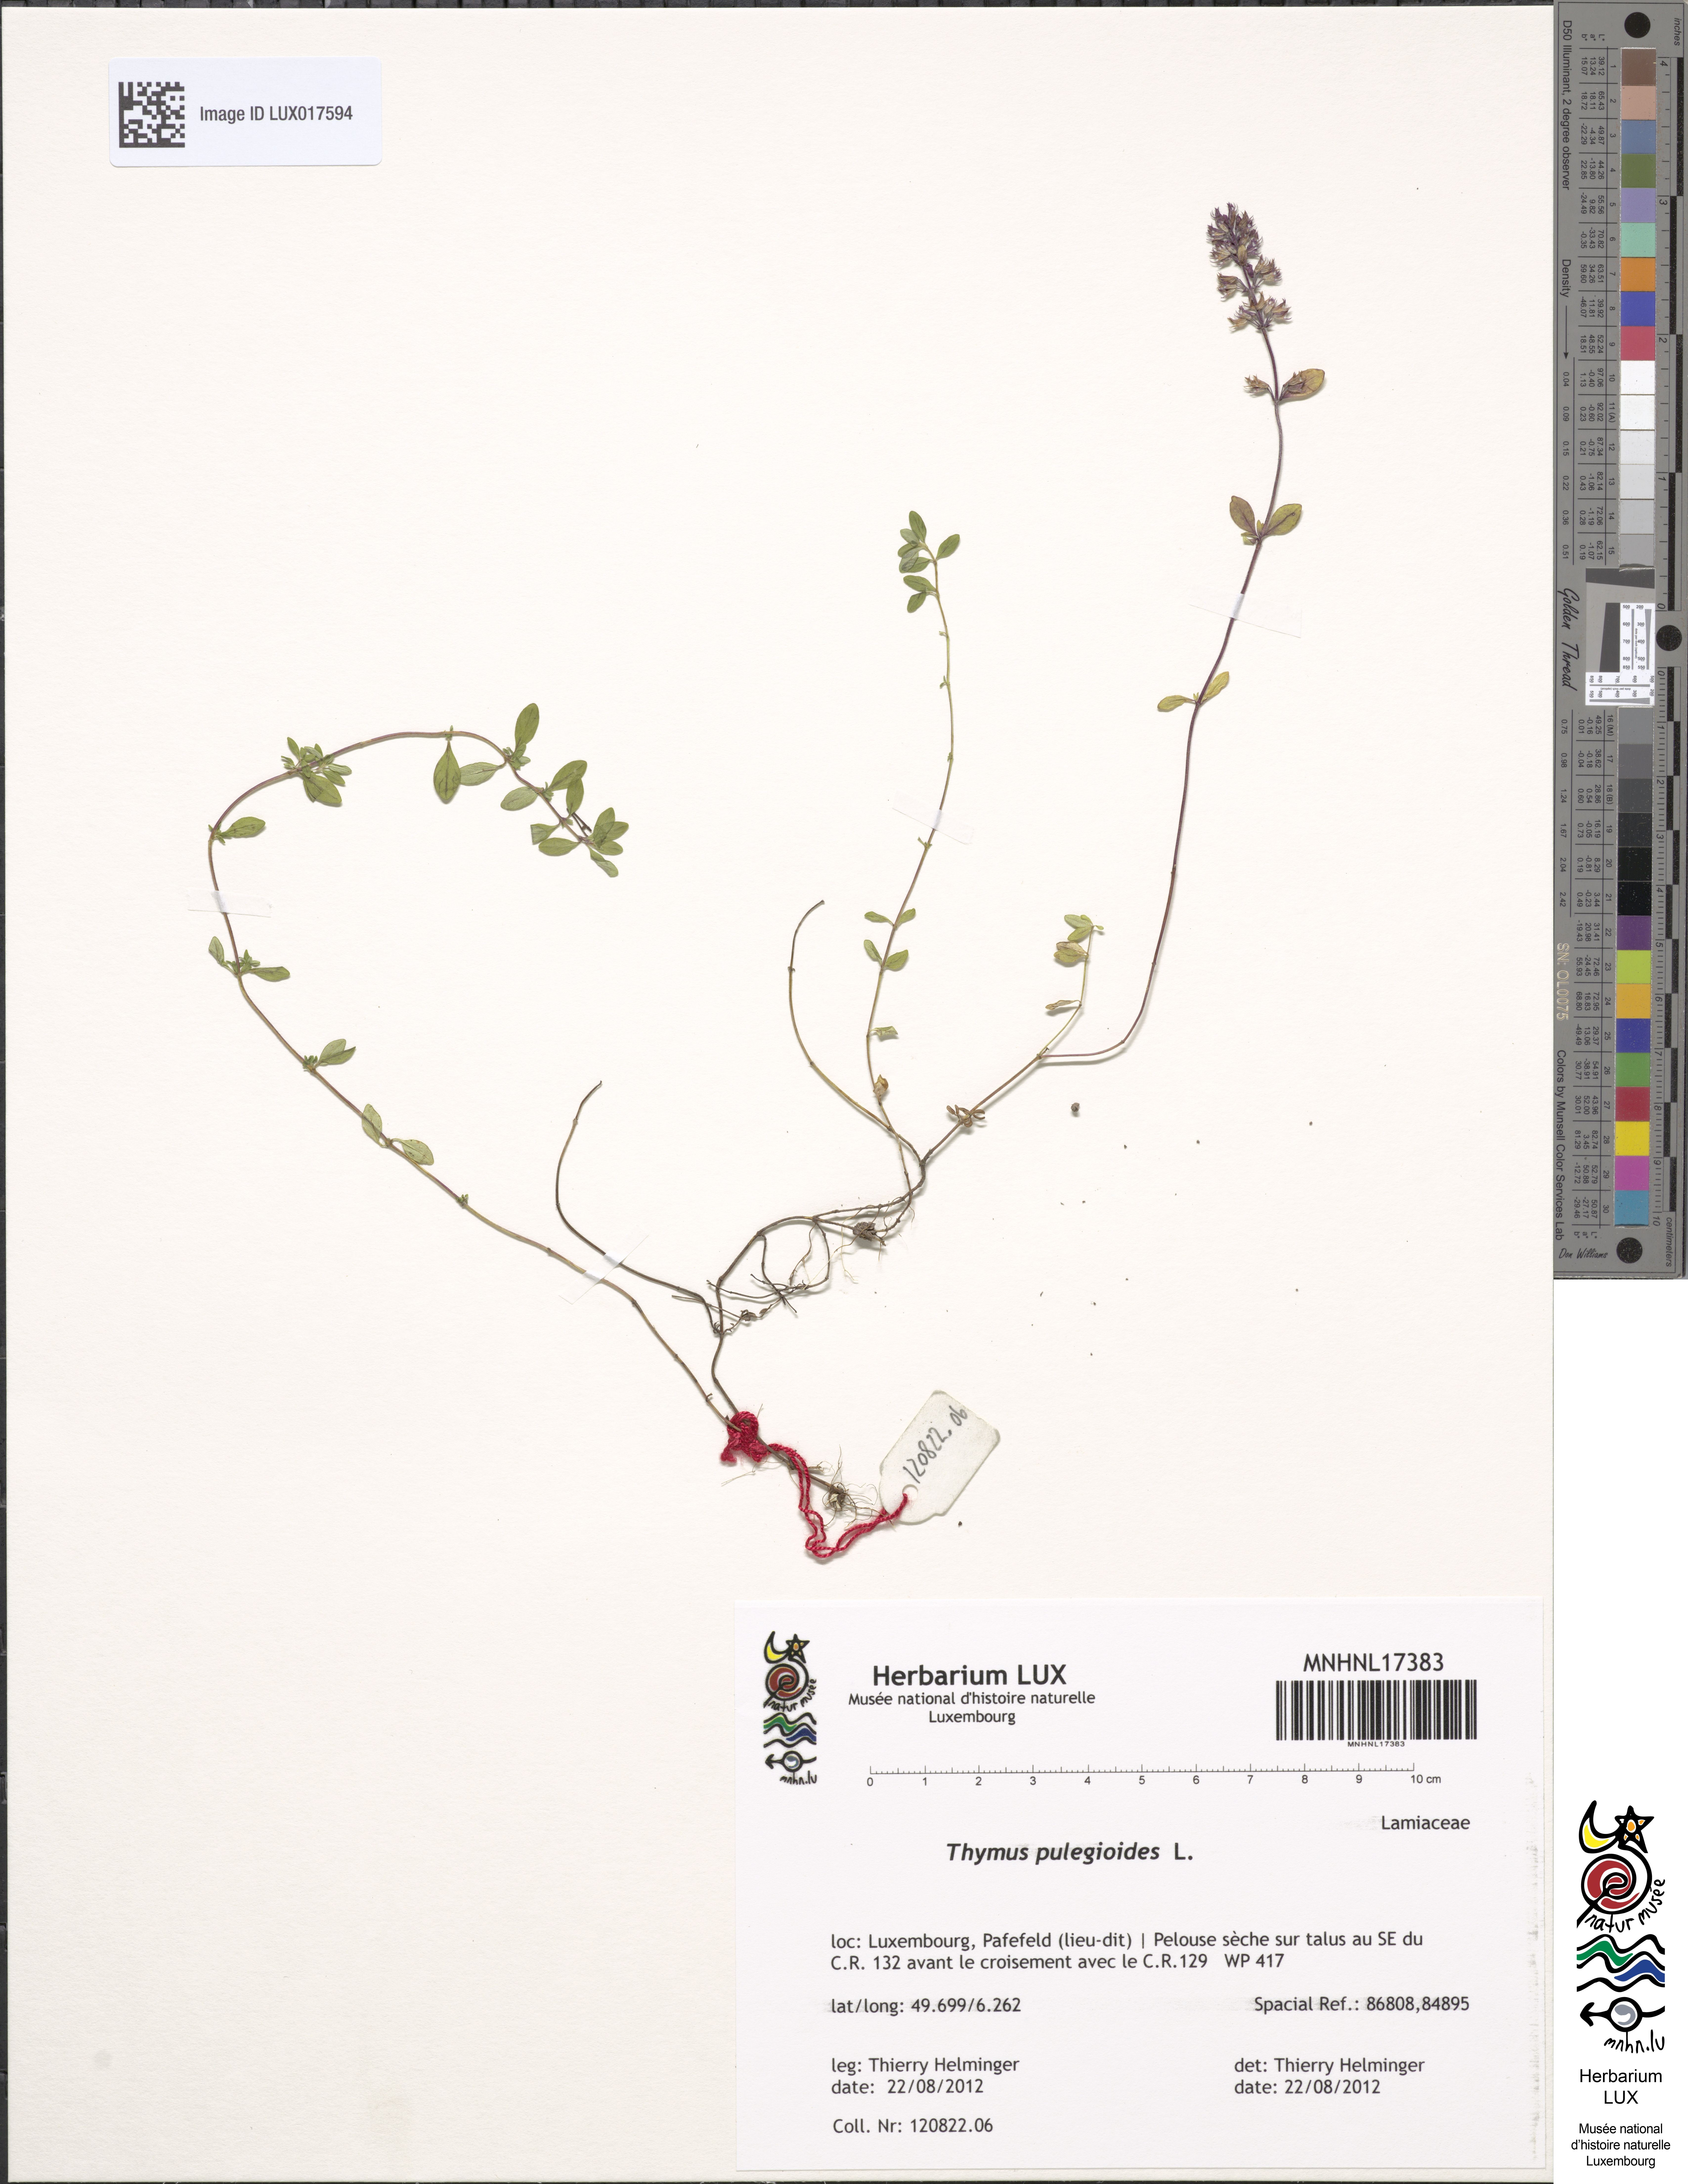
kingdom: Plantae
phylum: Tracheophyta
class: Magnoliopsida
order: Lamiales
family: Lamiaceae
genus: Thymus
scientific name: Thymus pulegioides
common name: Large thyme
